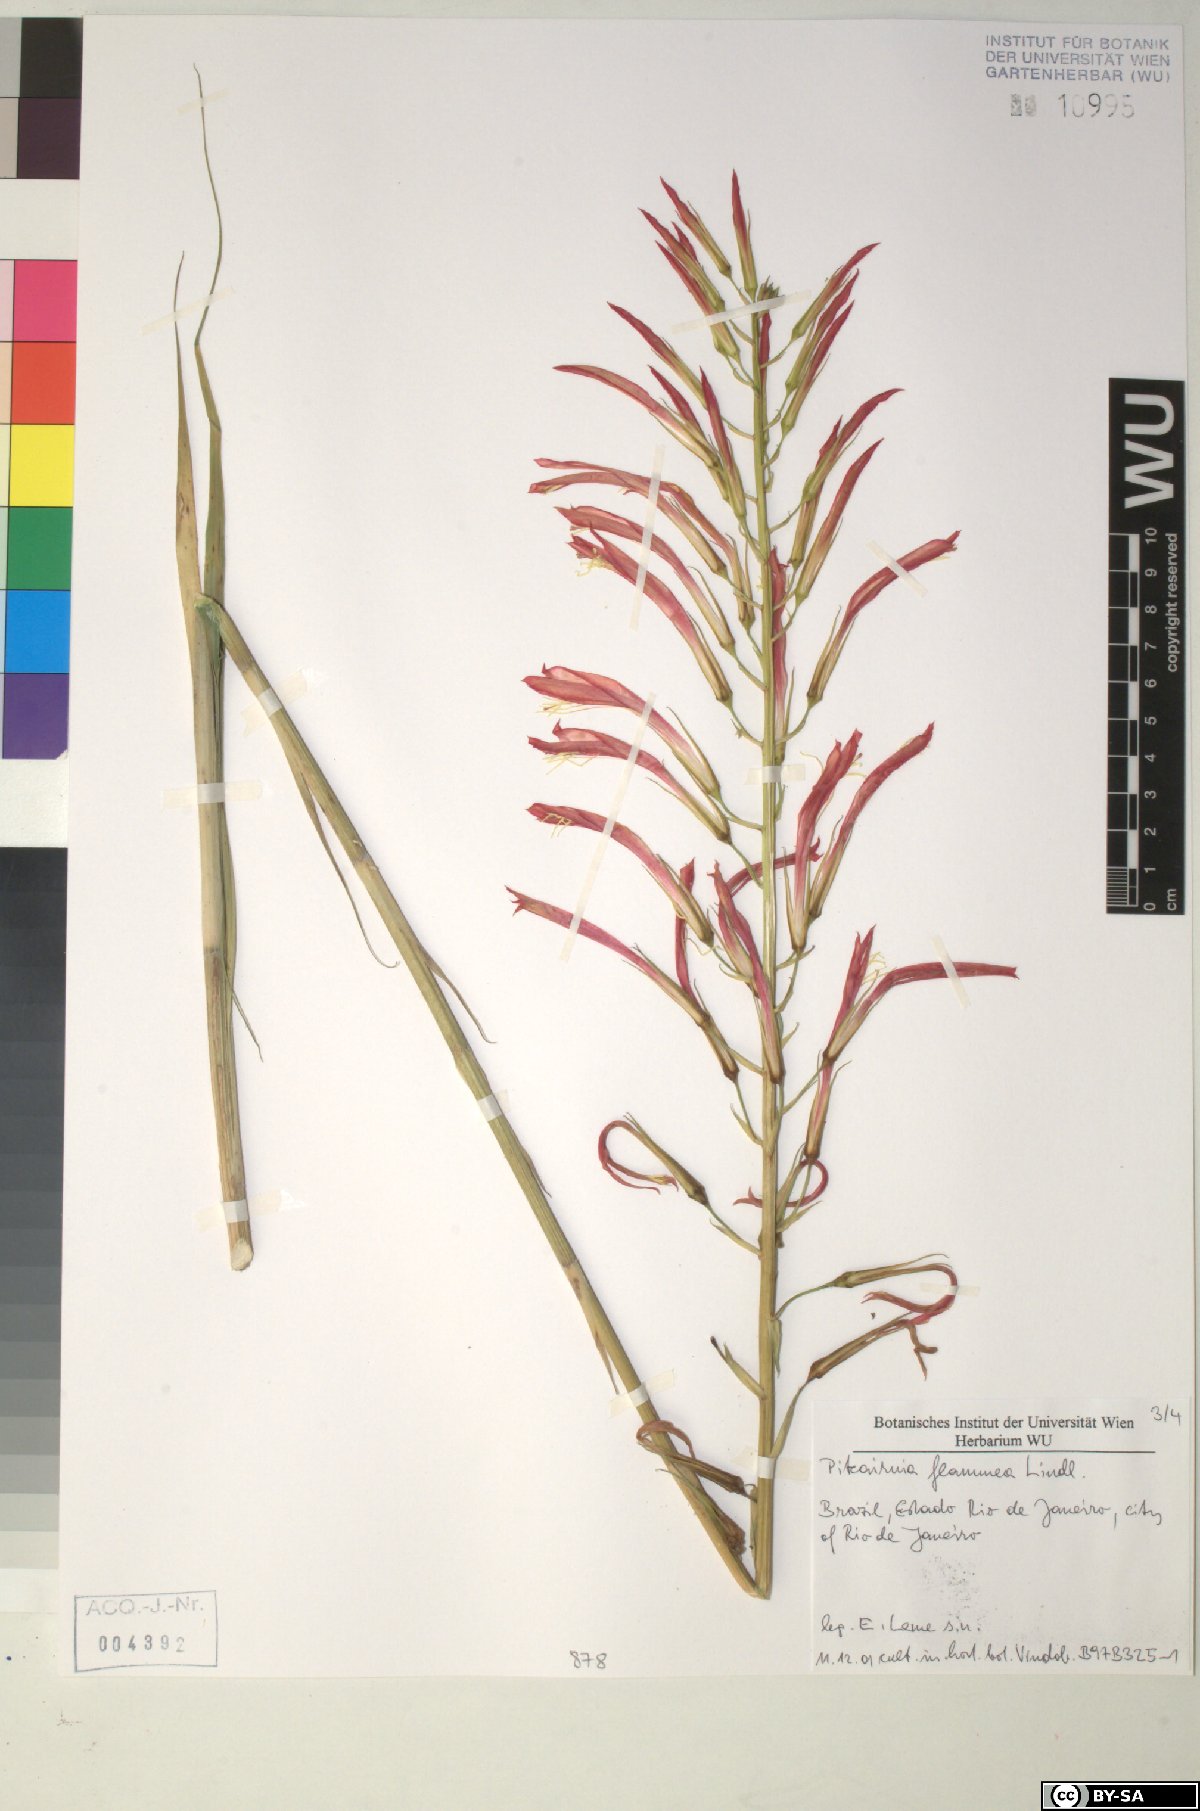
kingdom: Plantae
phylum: Tracheophyta
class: Liliopsida
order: Poales
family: Bromeliaceae
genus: Pitcairnia
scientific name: Pitcairnia
